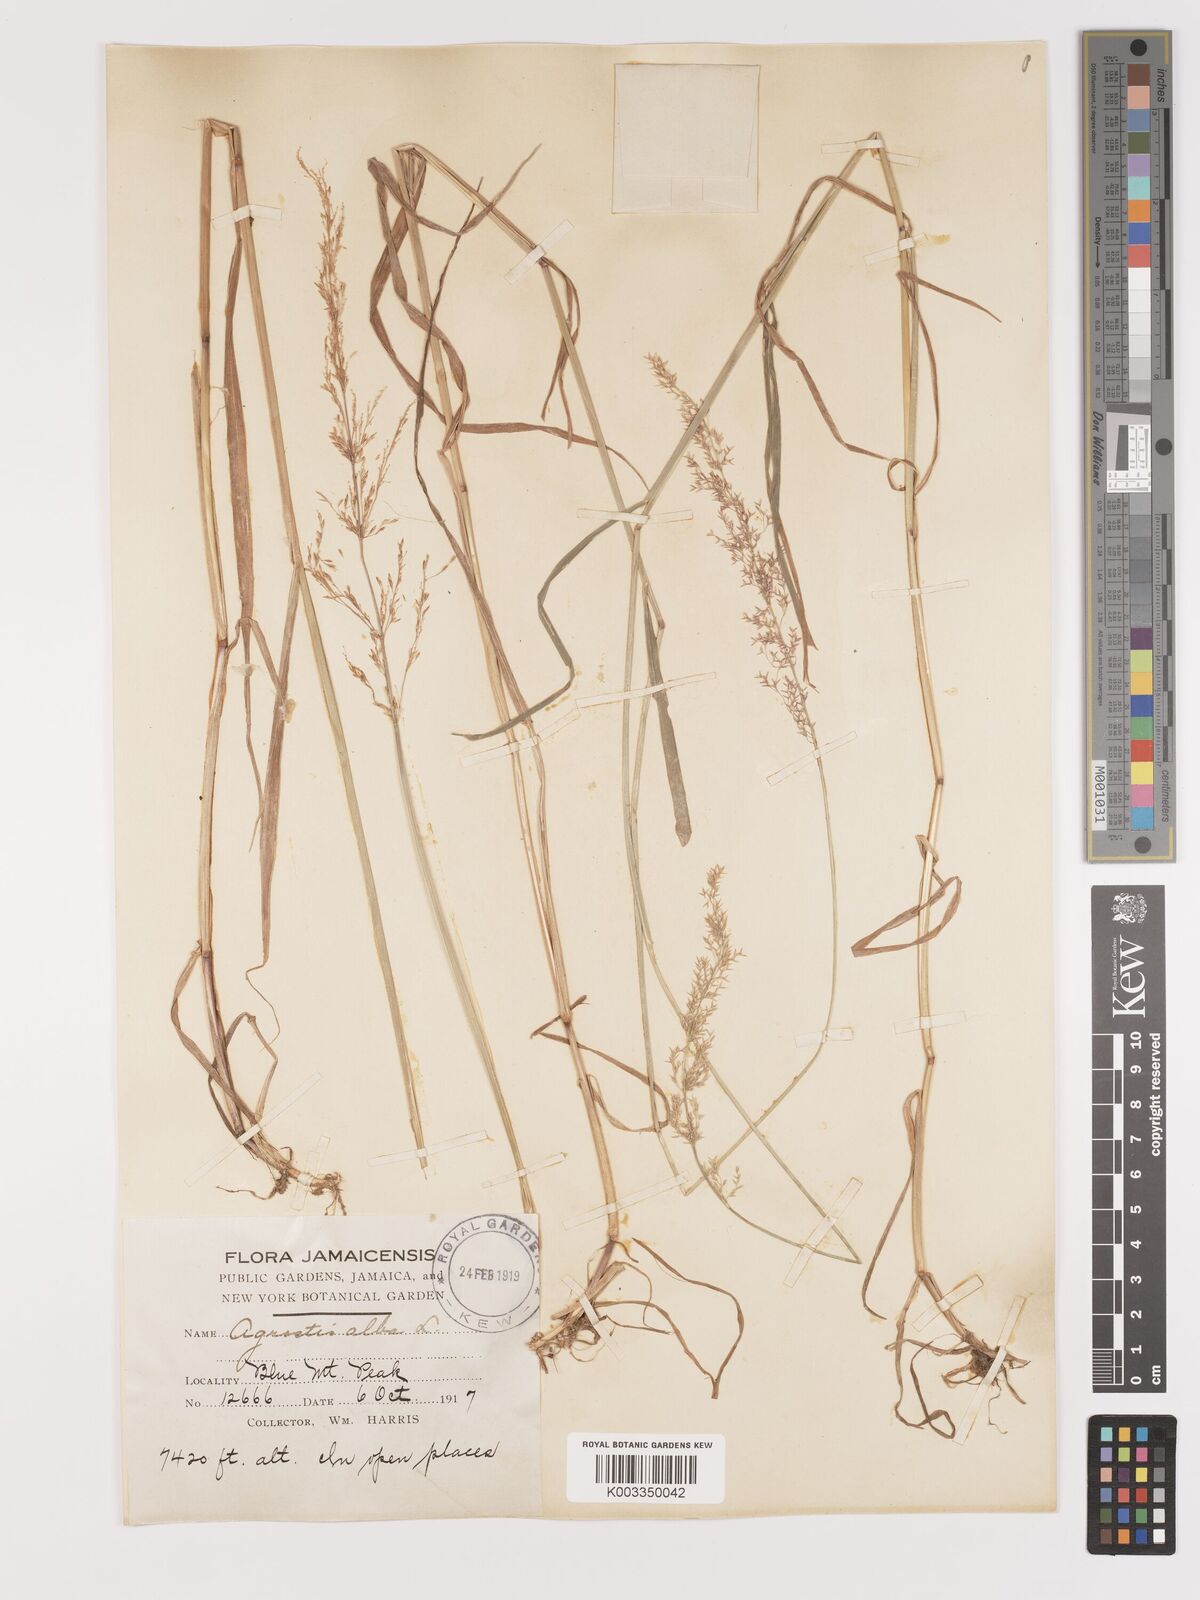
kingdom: Plantae
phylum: Tracheophyta
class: Liliopsida
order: Poales
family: Poaceae
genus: Agrostis
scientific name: Agrostis gigantea
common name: Black bent
